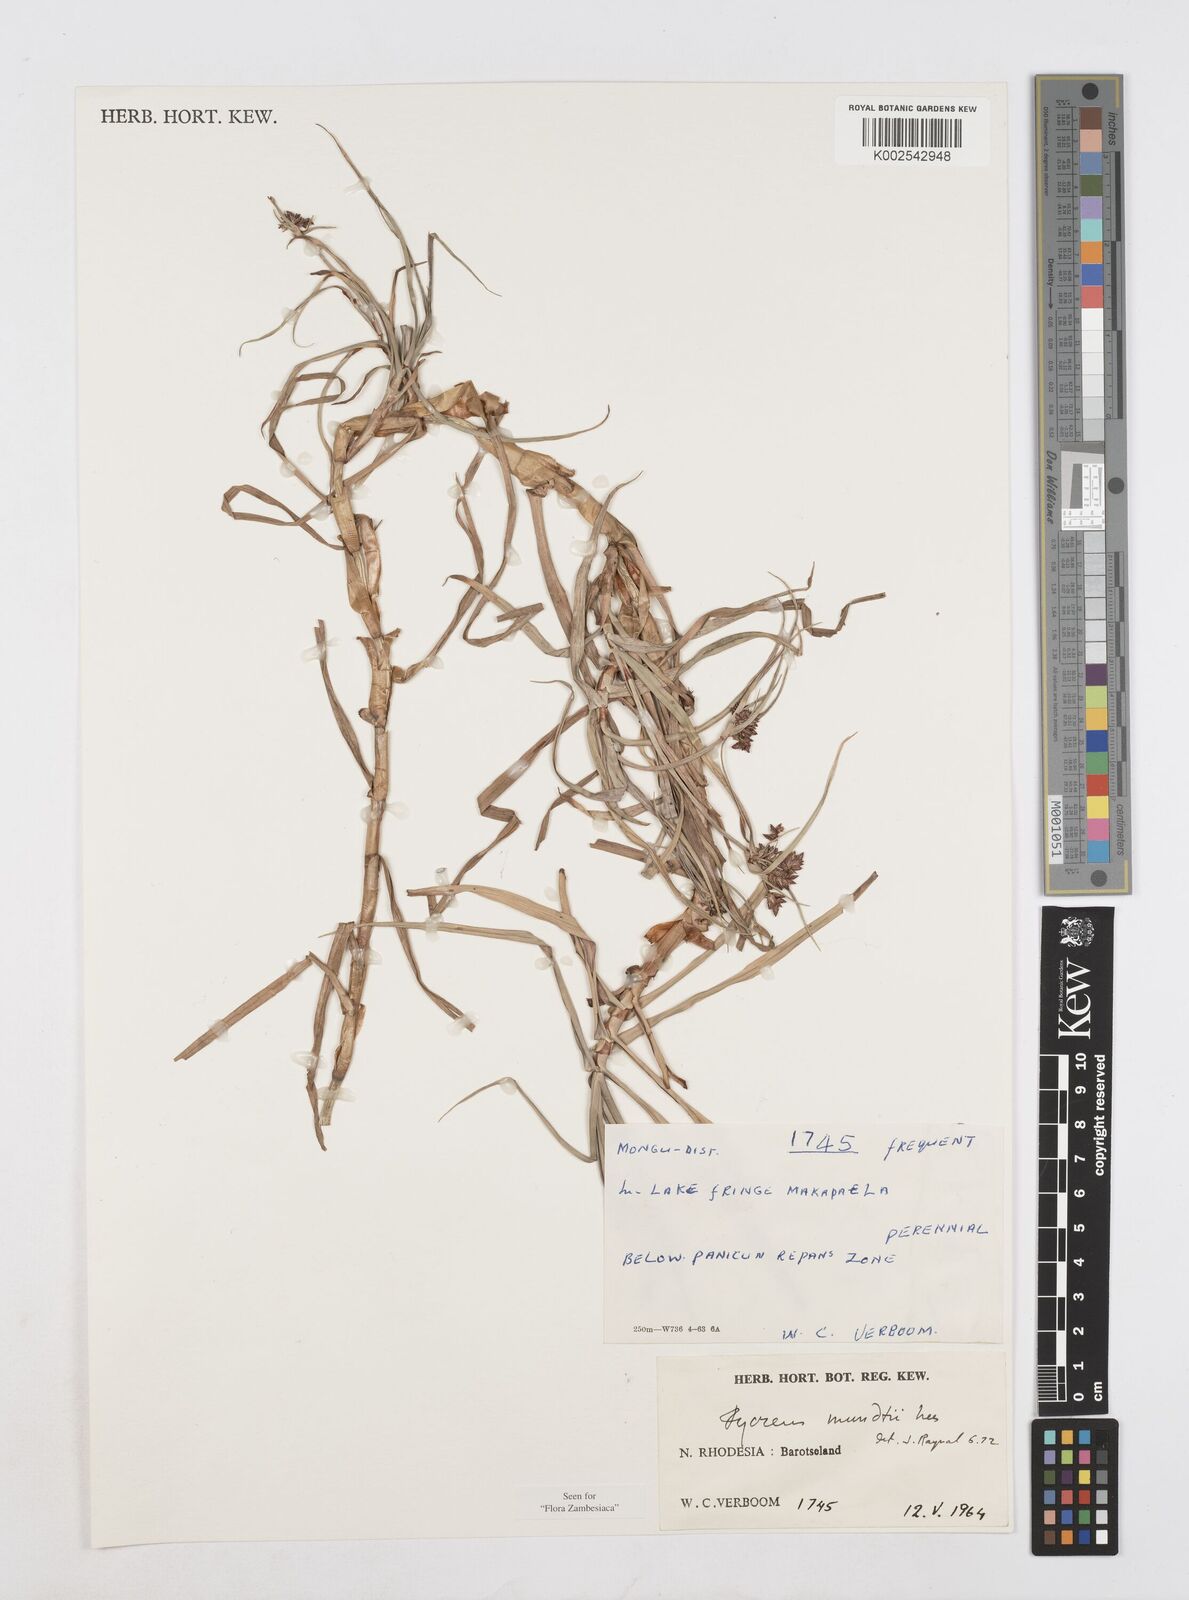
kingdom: Plantae
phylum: Tracheophyta
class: Liliopsida
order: Poales
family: Cyperaceae
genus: Cyperus
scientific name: Cyperus mundii
